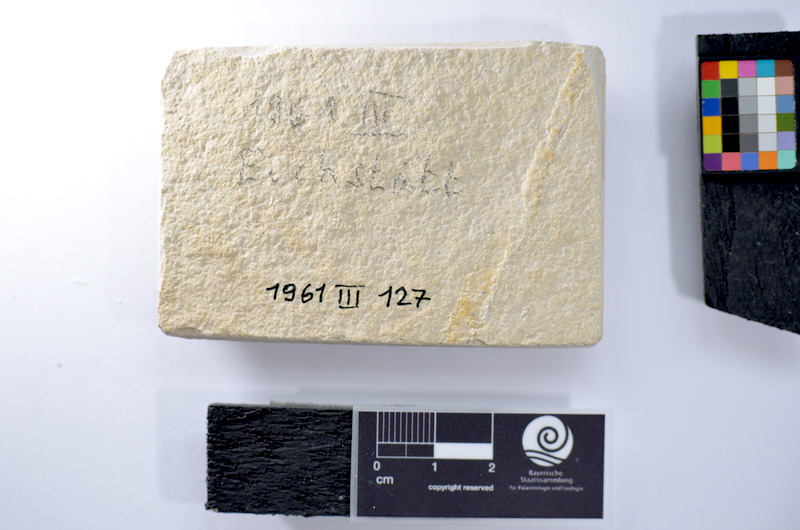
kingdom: Animalia
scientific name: Animalia
